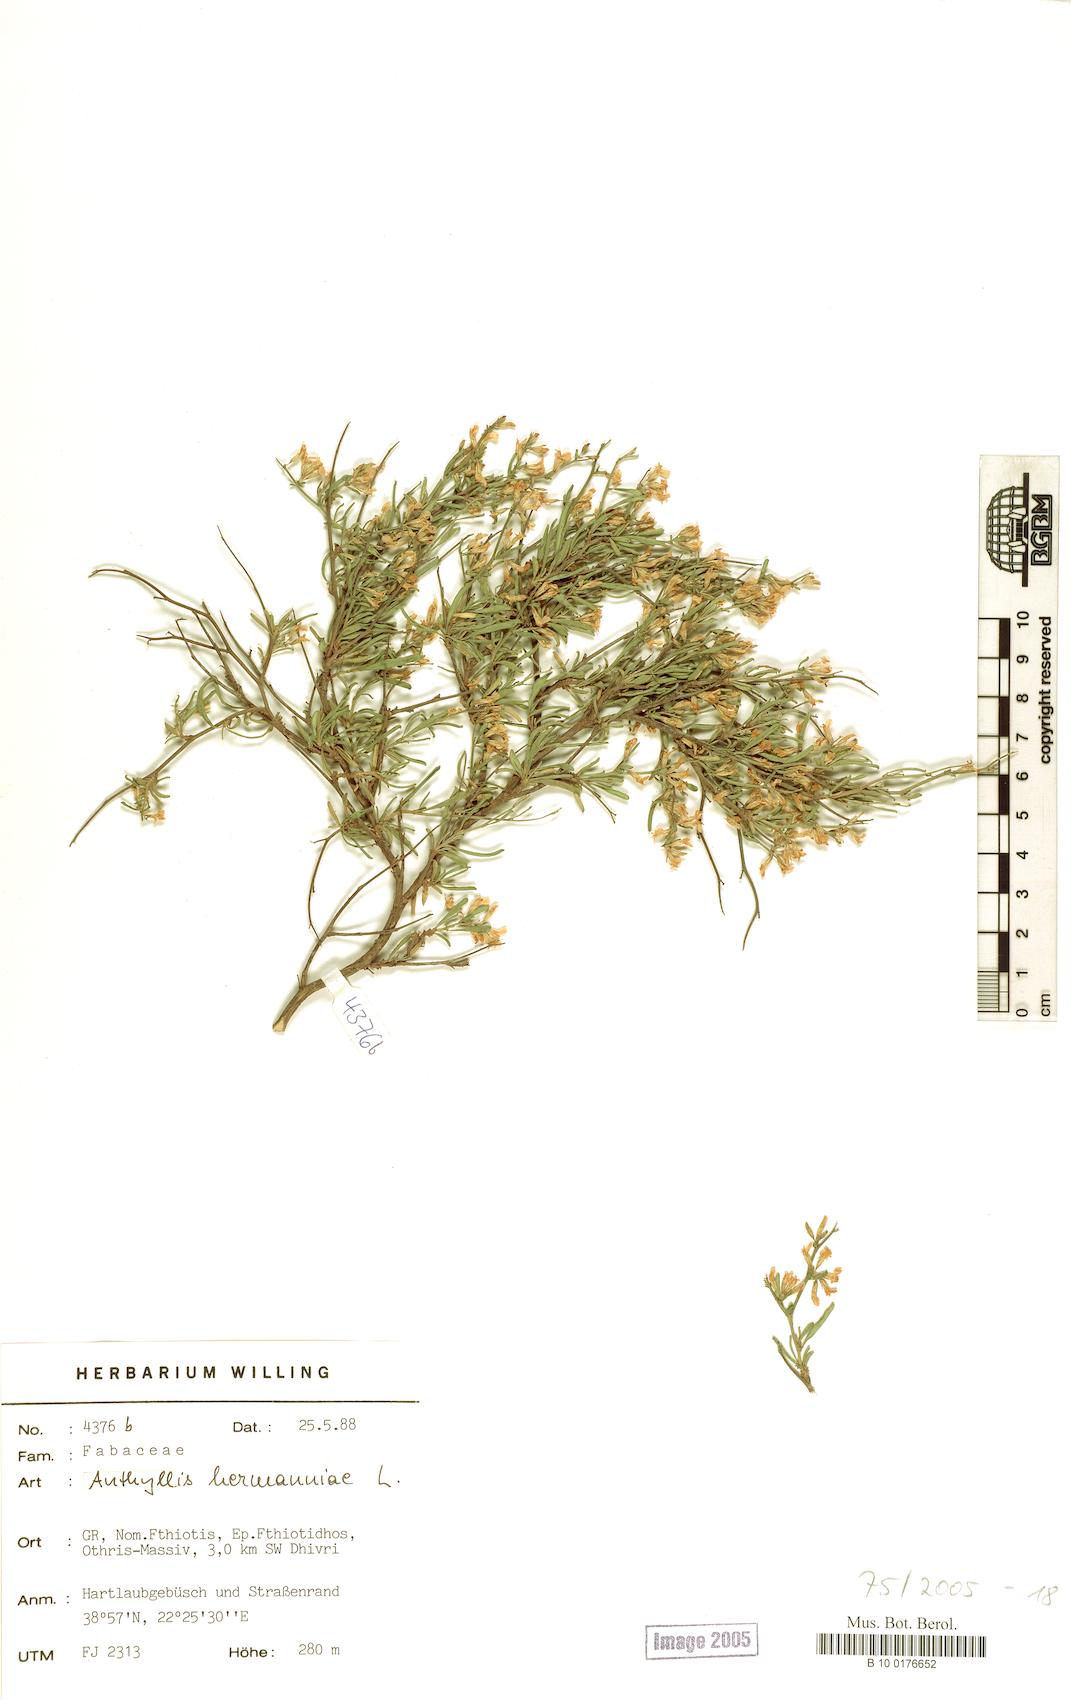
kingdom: Plantae
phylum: Tracheophyta
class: Magnoliopsida
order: Fabales
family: Fabaceae
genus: Anthyllis
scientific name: Anthyllis hermanniae
